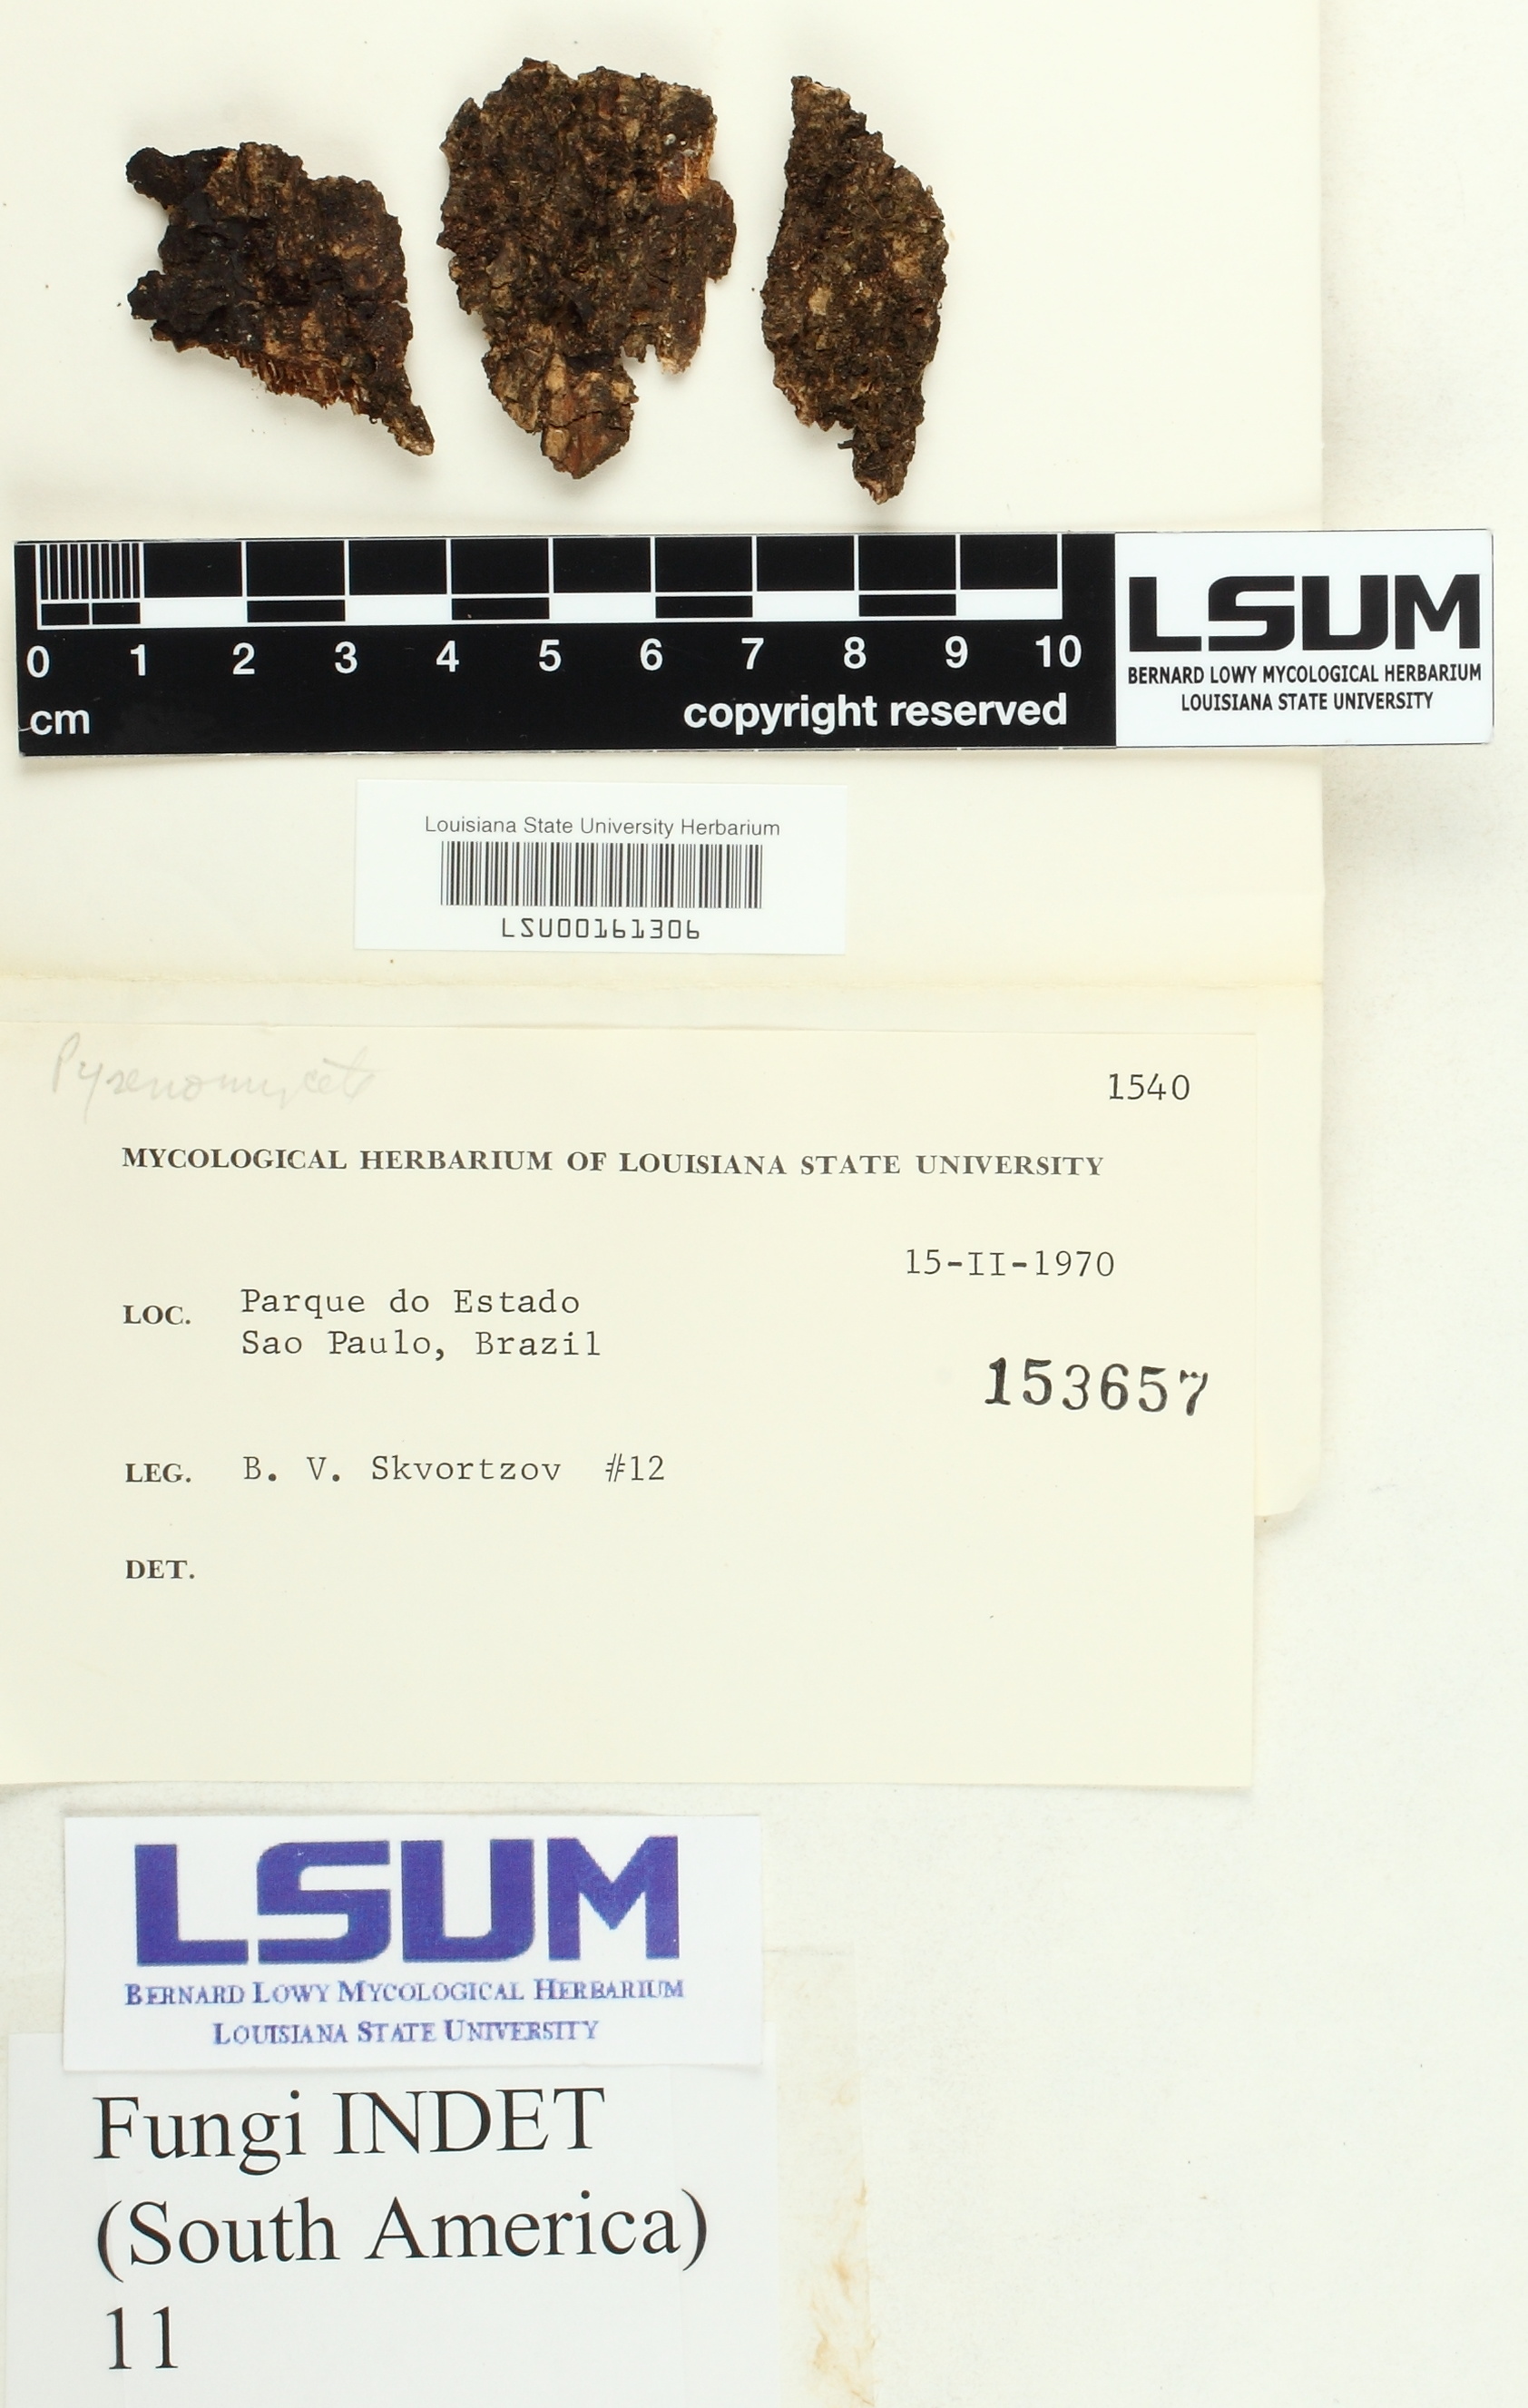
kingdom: Fungi
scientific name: Fungi
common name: Fungi
